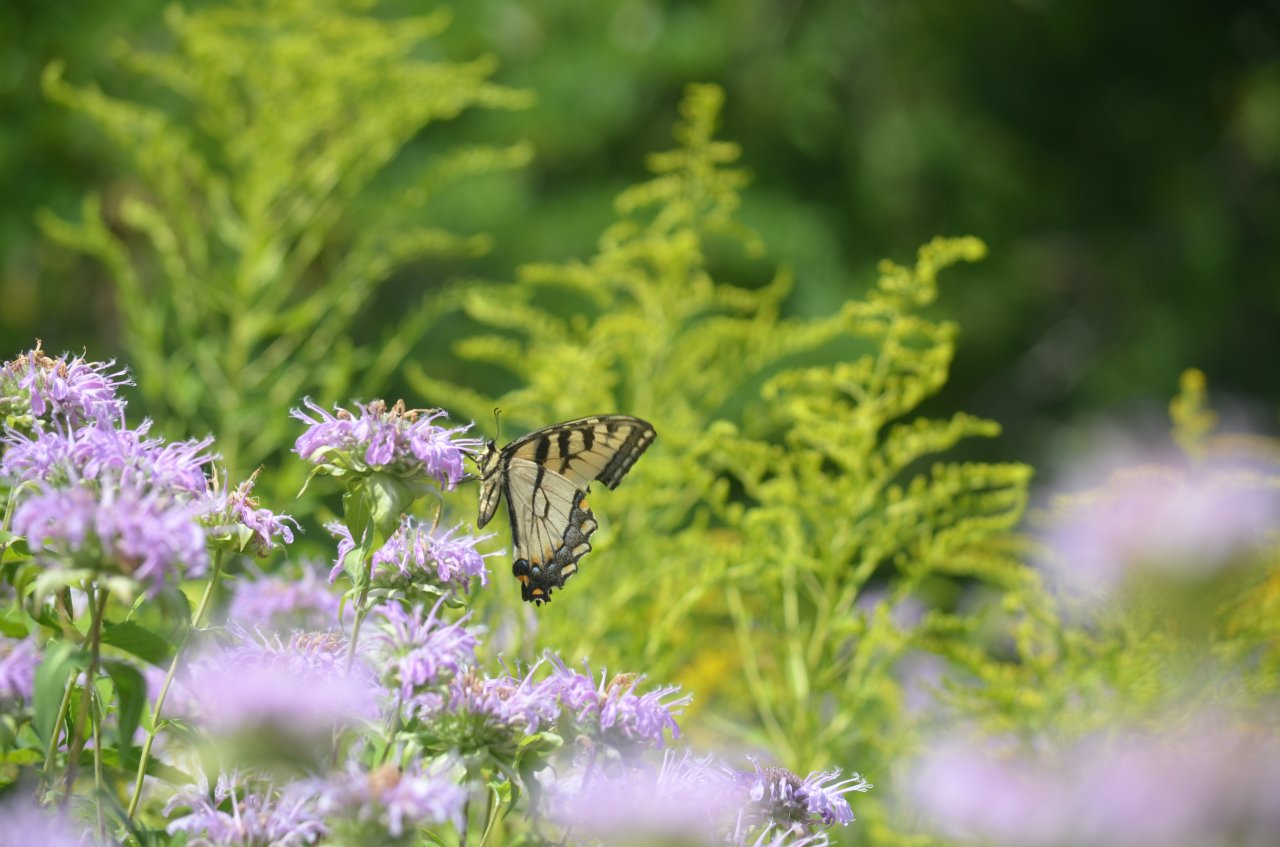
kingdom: Animalia
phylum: Arthropoda
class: Insecta
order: Lepidoptera
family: Papilionidae
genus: Pterourus
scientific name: Pterourus glaucus
